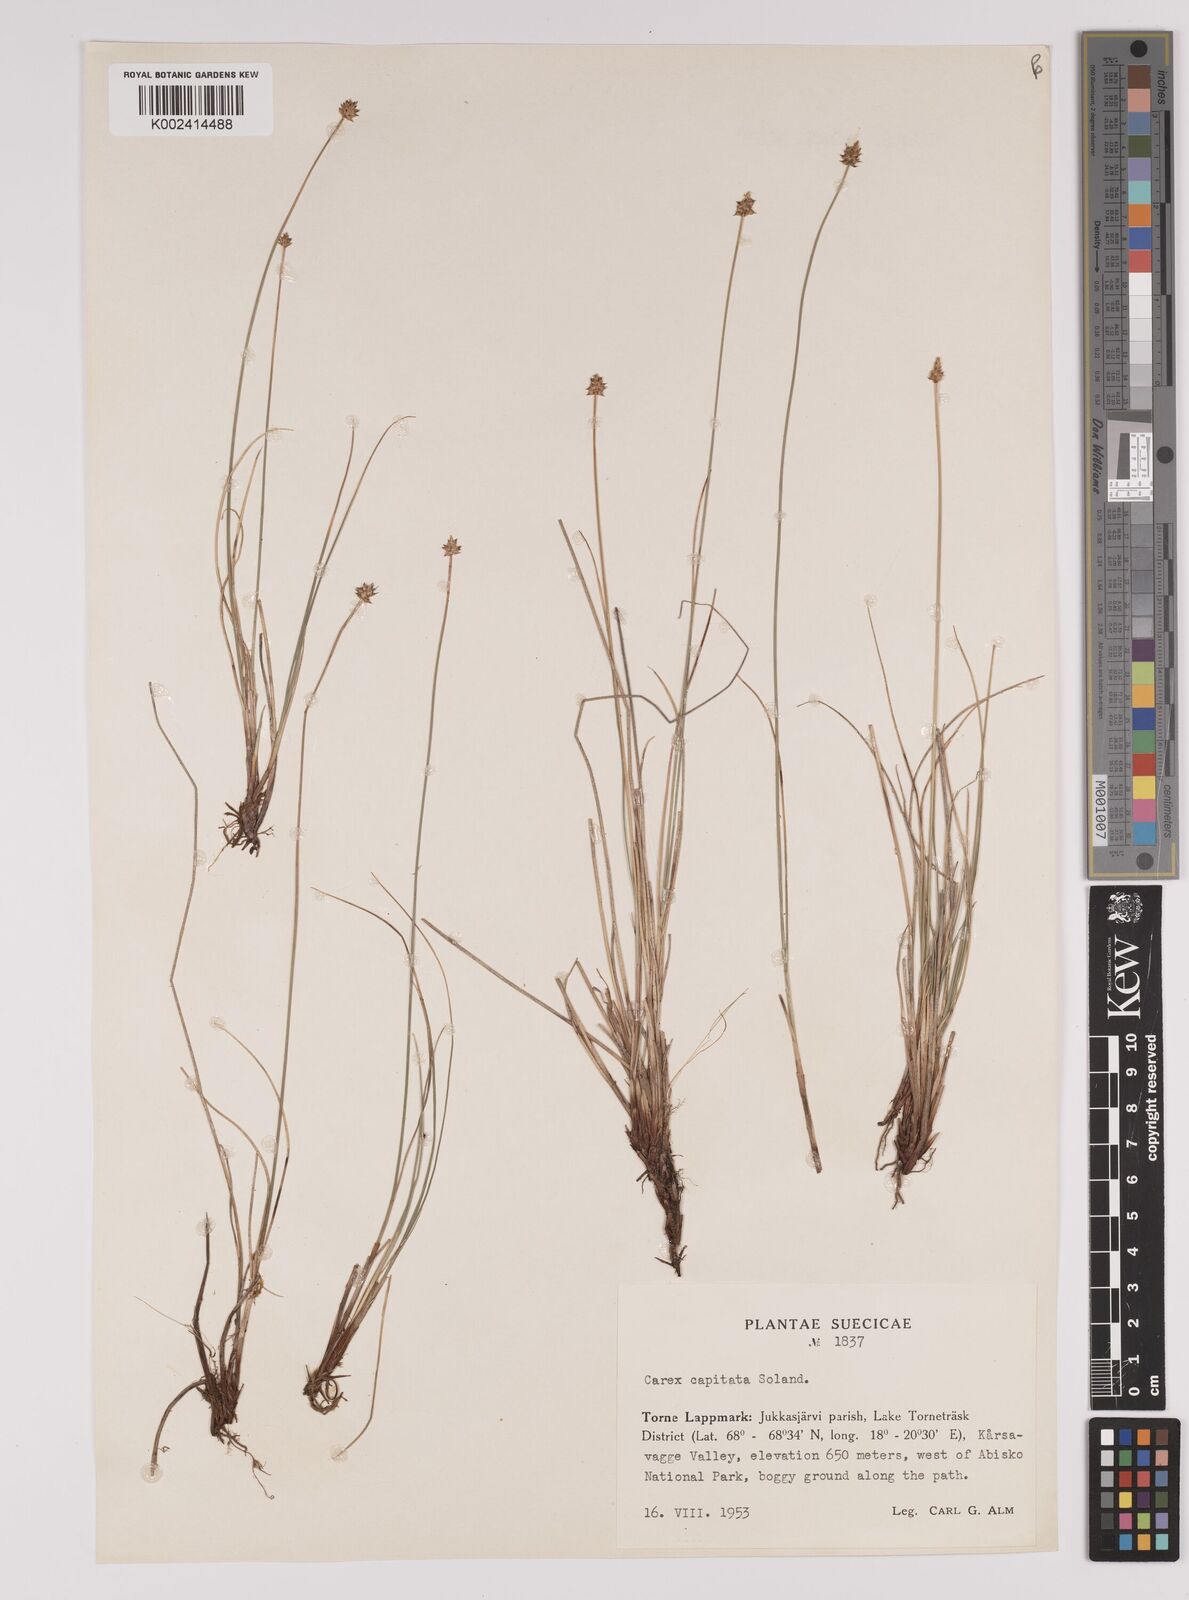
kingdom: Plantae
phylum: Tracheophyta
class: Liliopsida
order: Poales
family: Cyperaceae
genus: Carex
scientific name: Carex capitata
